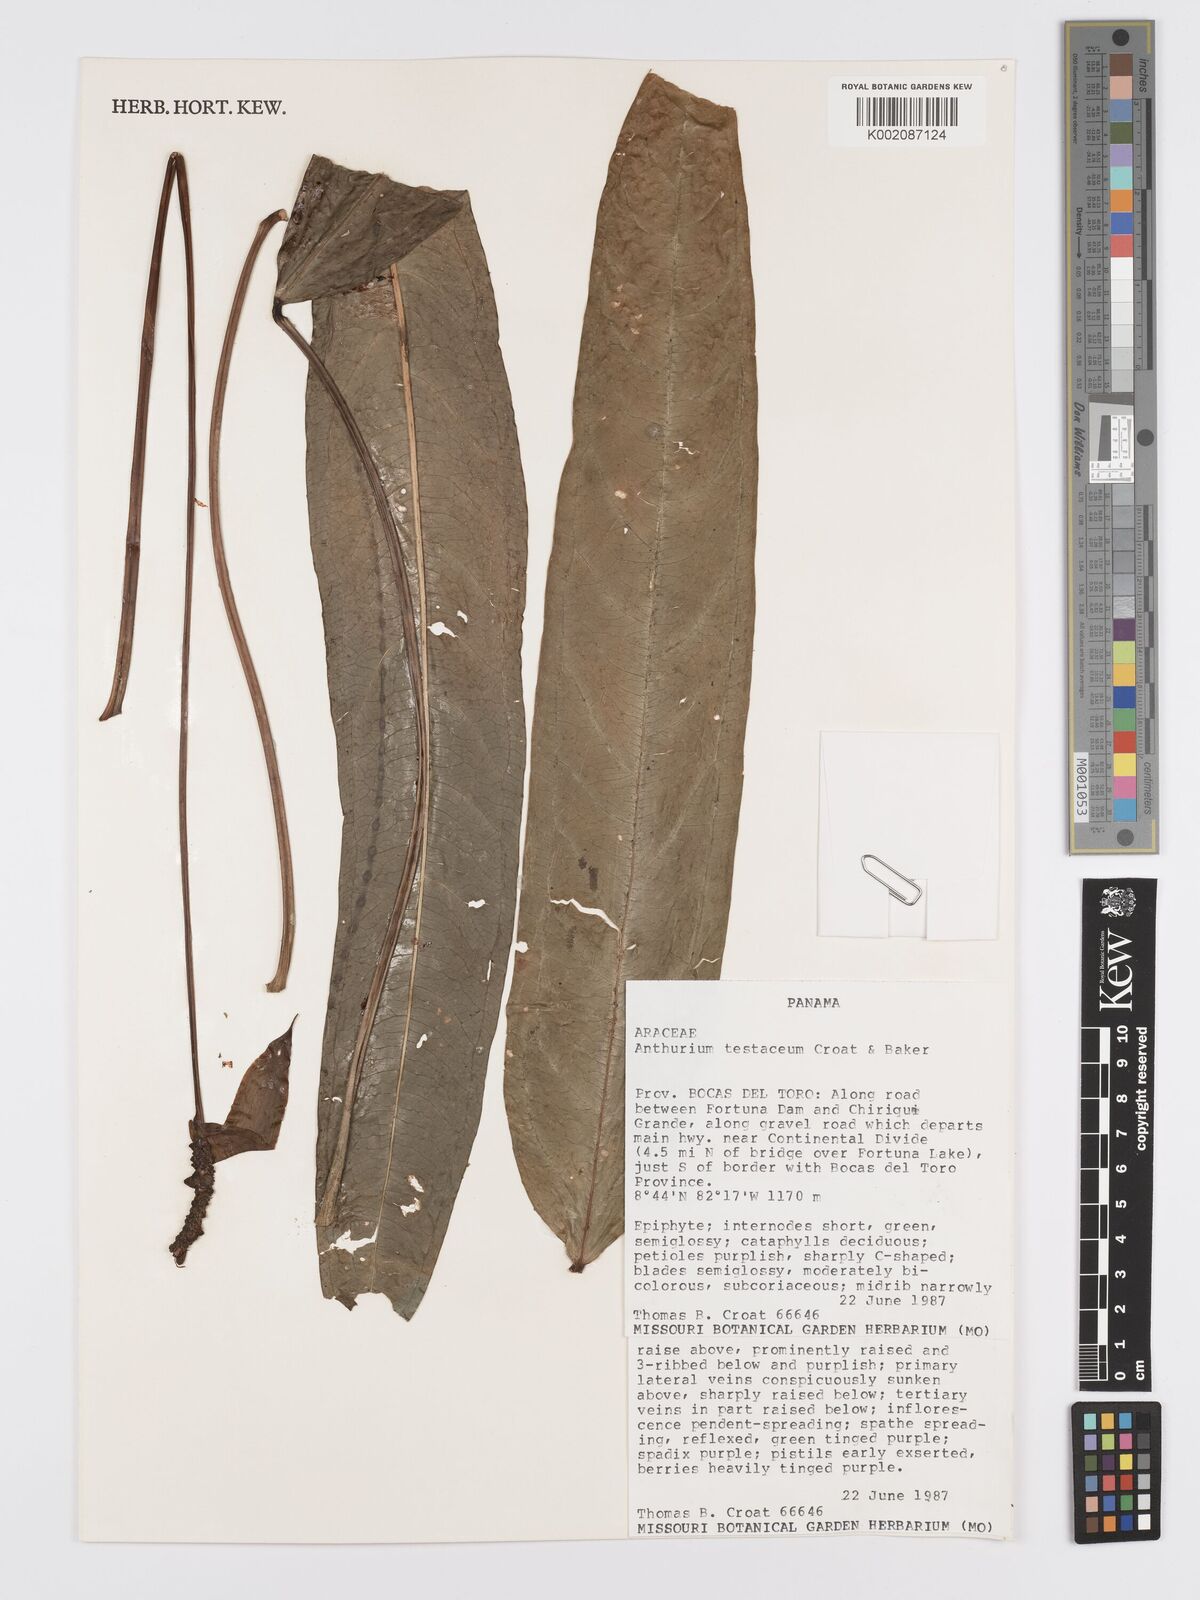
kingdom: Plantae
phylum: Tracheophyta
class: Liliopsida
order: Alismatales
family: Araceae
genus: Anthurium
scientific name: Anthurium testaceum
